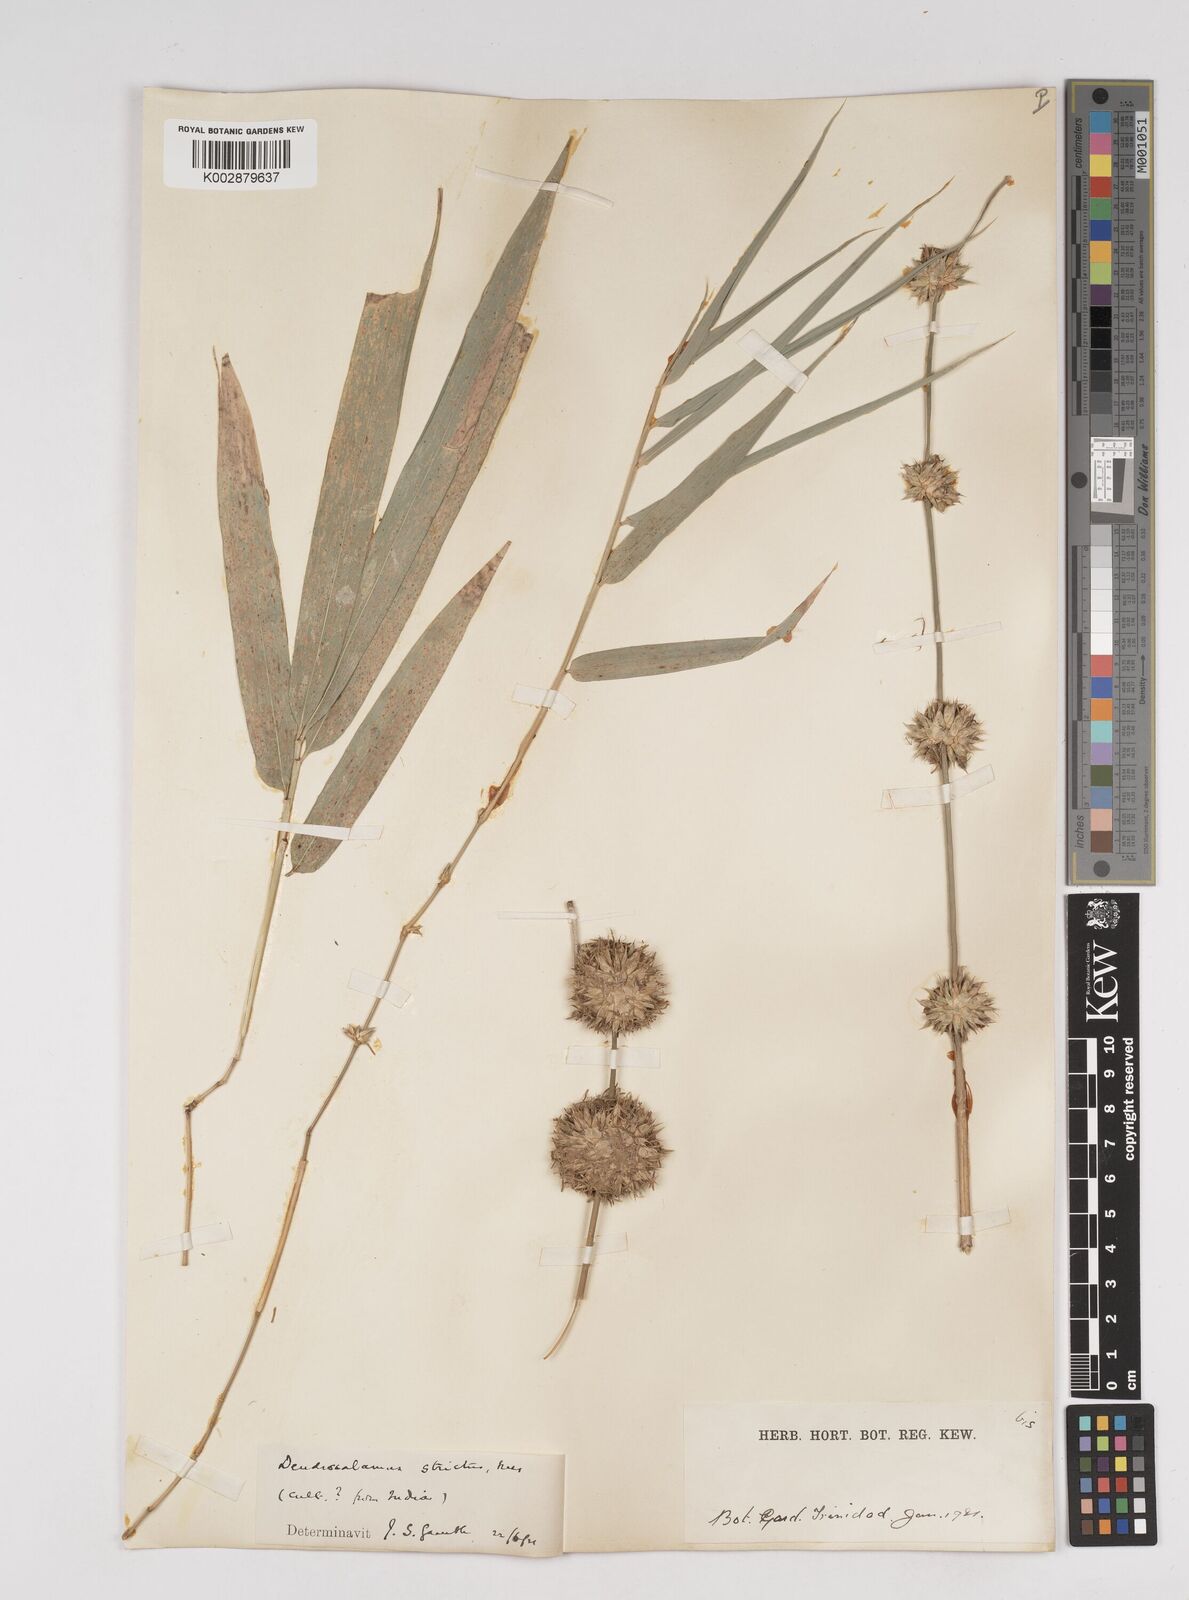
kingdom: Plantae
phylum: Tracheophyta
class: Liliopsida
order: Poales
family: Poaceae
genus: Dendrocalamus
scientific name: Dendrocalamus strictus
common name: Male bamboo
